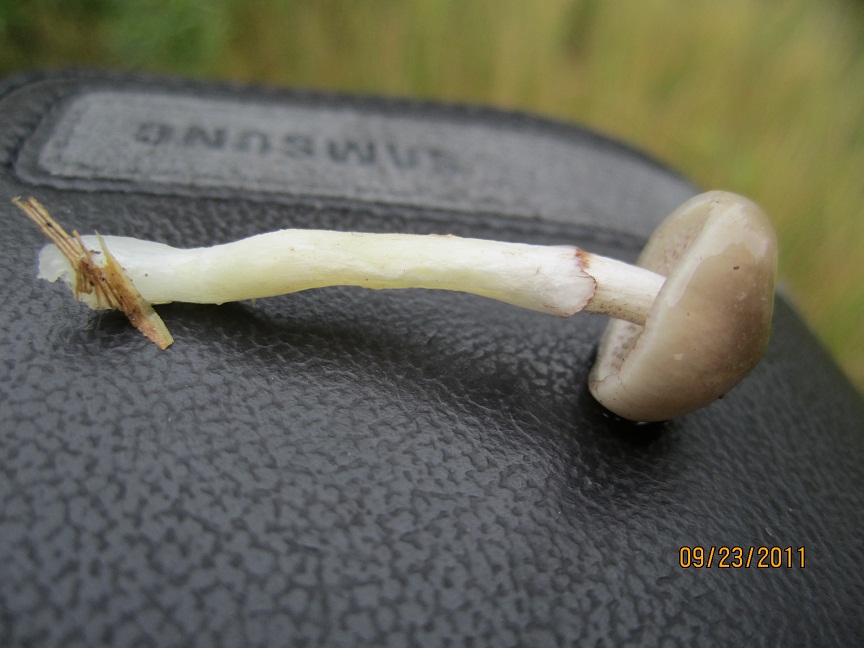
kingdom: Fungi
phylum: Basidiomycota
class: Agaricomycetes
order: Agaricales
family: Strophariaceae
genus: Stropharia
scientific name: Stropharia inuncta
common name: lillabrun bredblad
